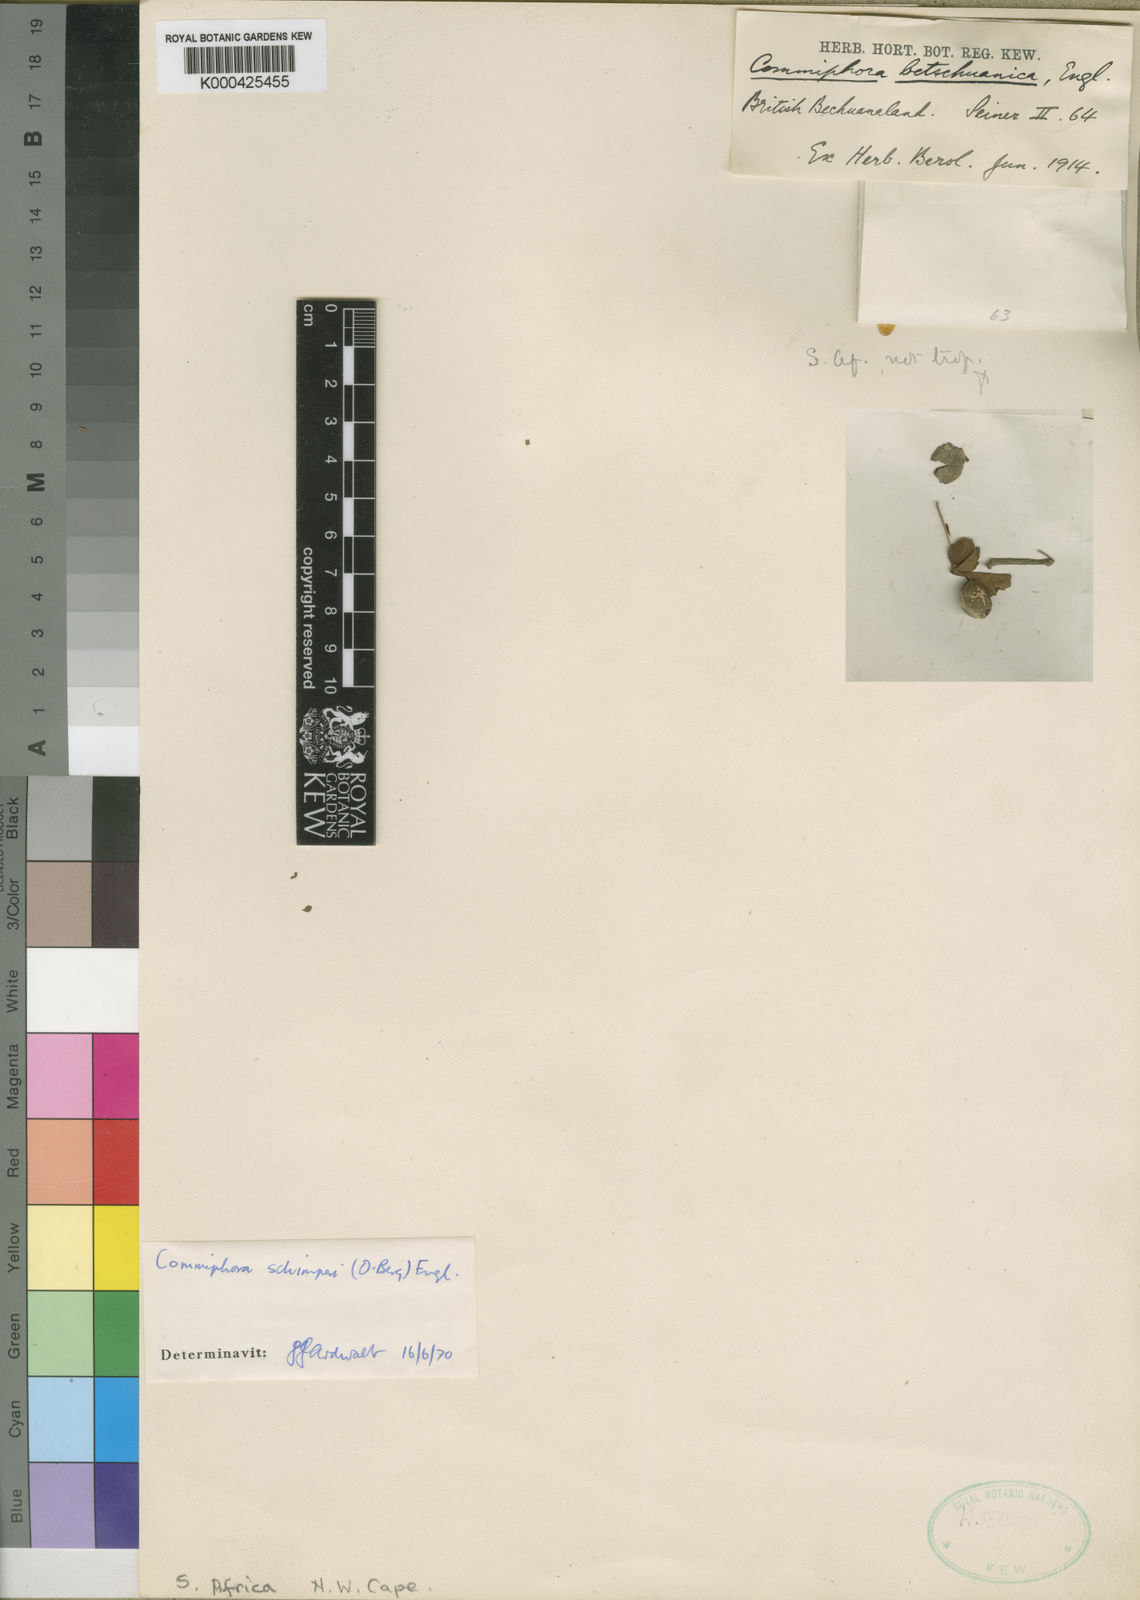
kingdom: Plantae
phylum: Tracheophyta
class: Magnoliopsida
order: Sapindales
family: Burseraceae
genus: Commiphora
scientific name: Commiphora schimperi
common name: Glossy-leaved corkwood
